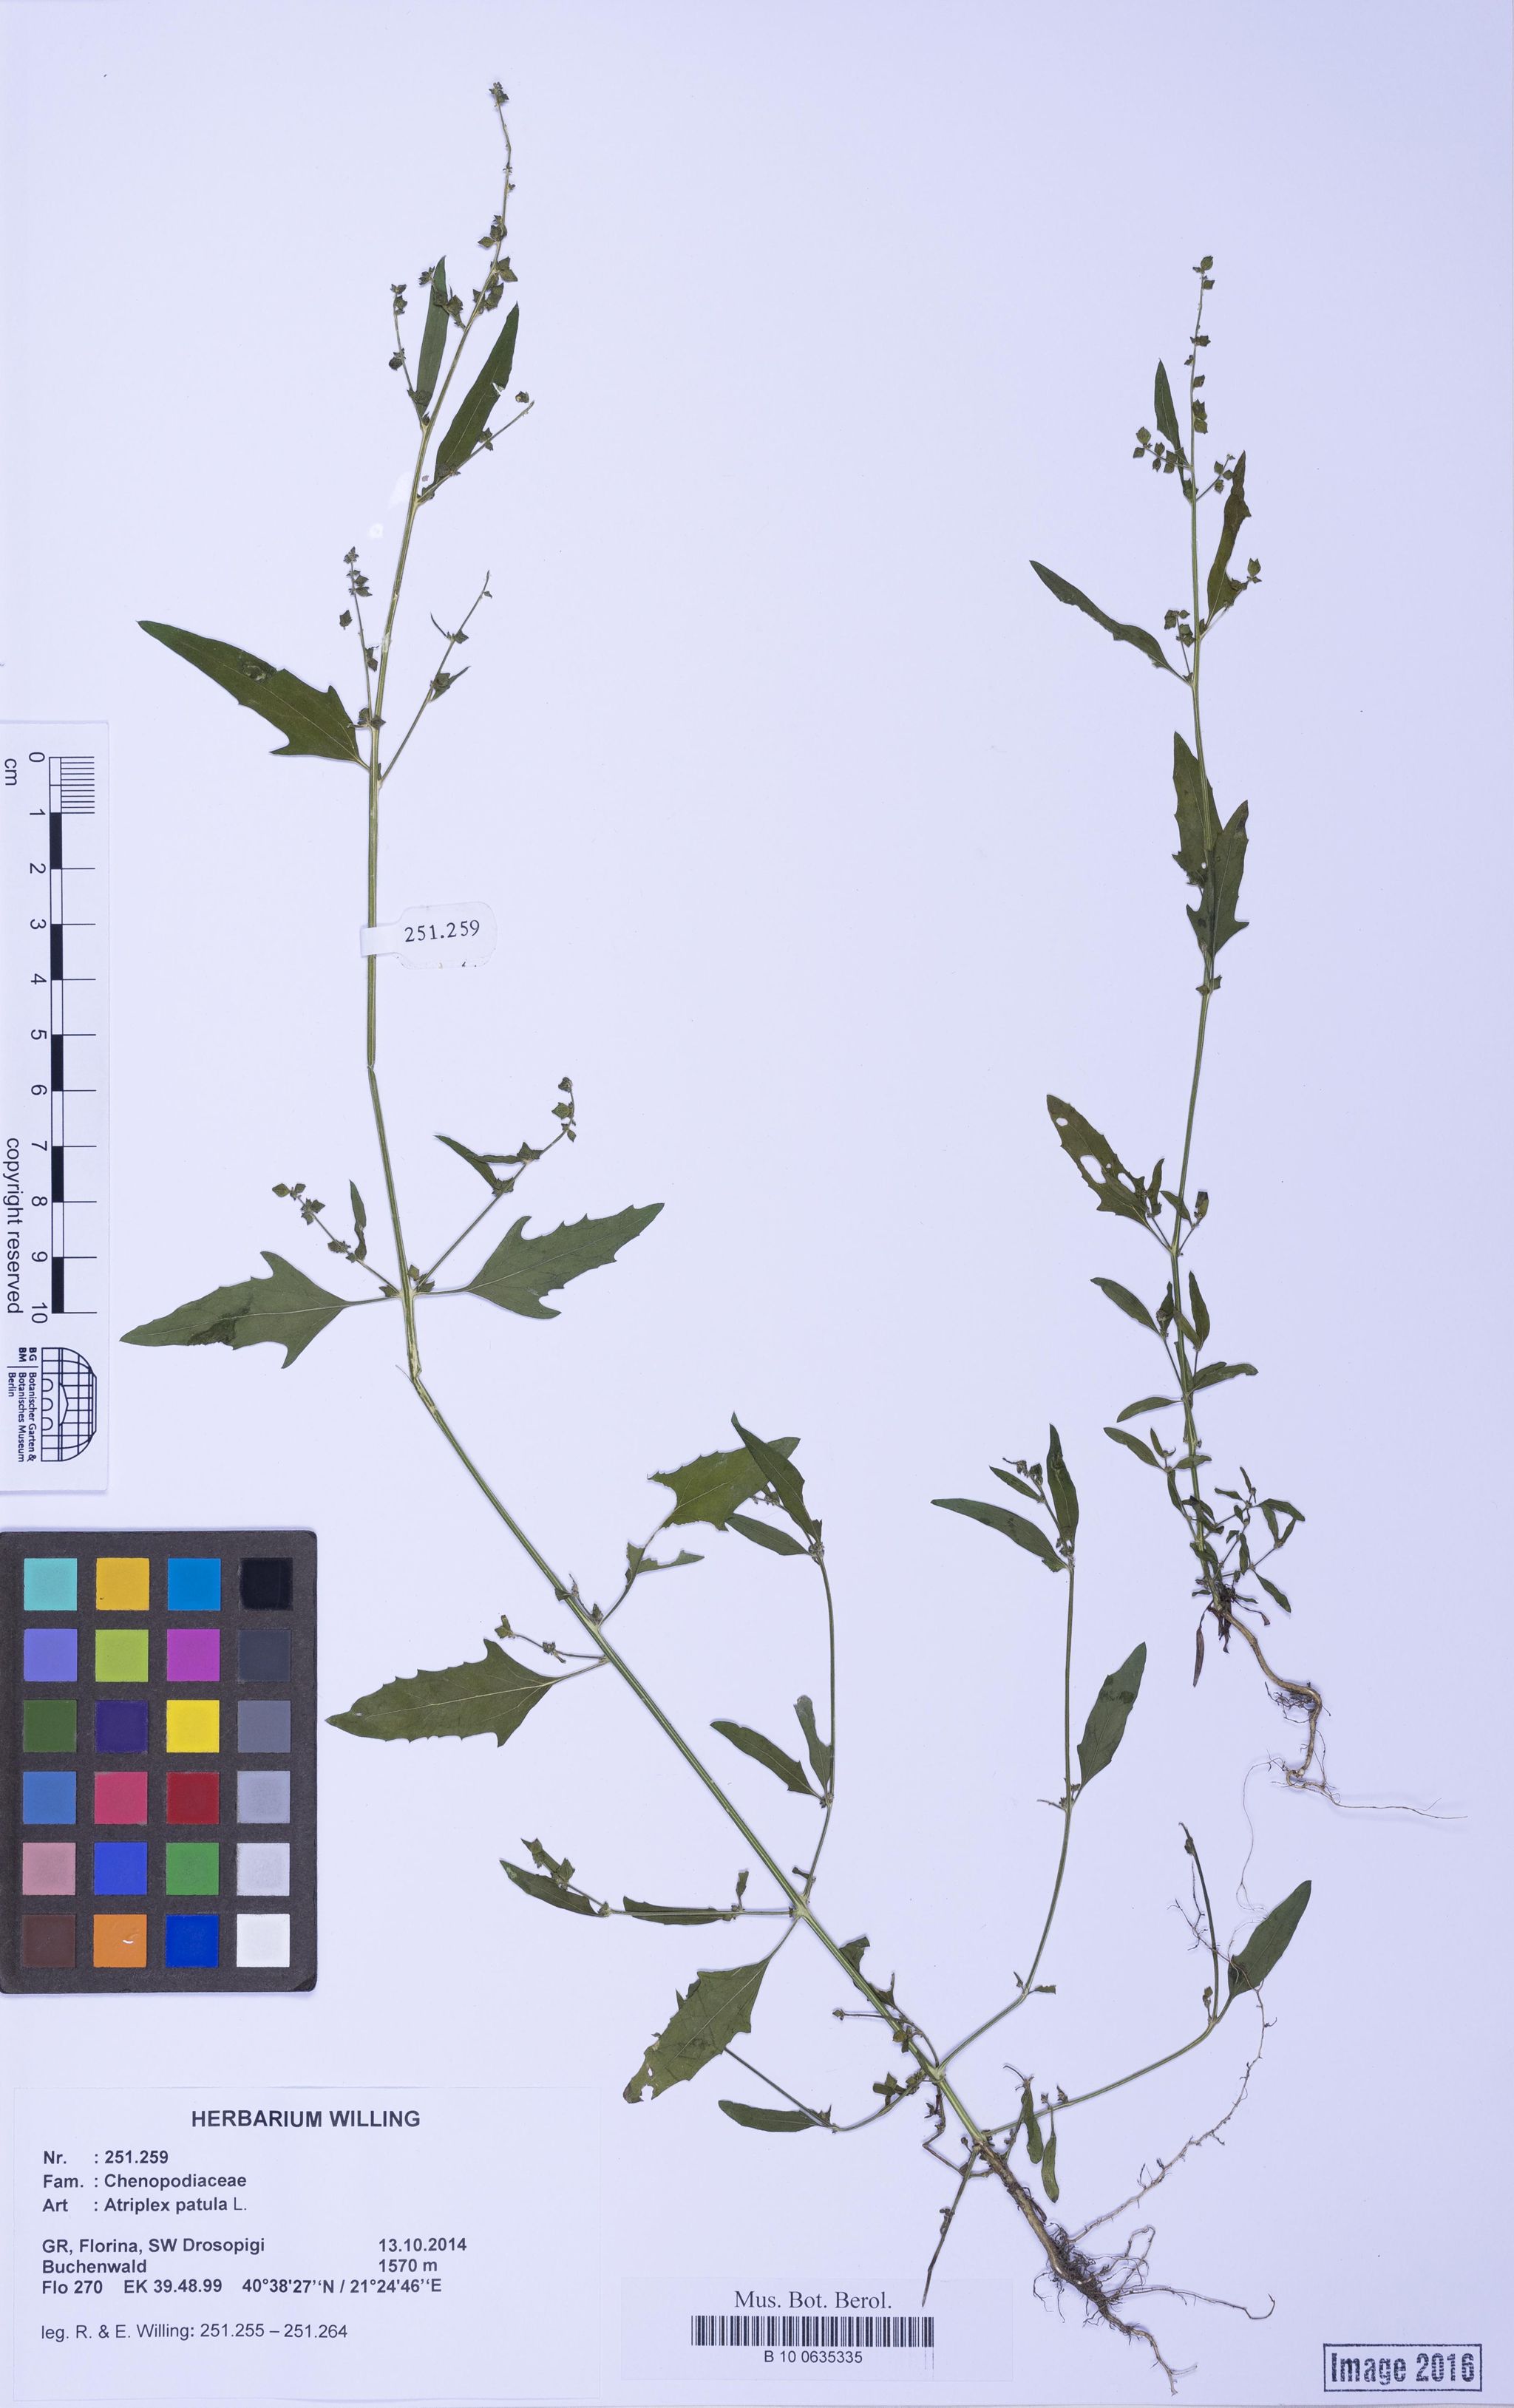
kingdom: Plantae
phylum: Tracheophyta
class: Magnoliopsida
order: Caryophyllales
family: Amaranthaceae
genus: Atriplex
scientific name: Atriplex patula
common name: Common orache
